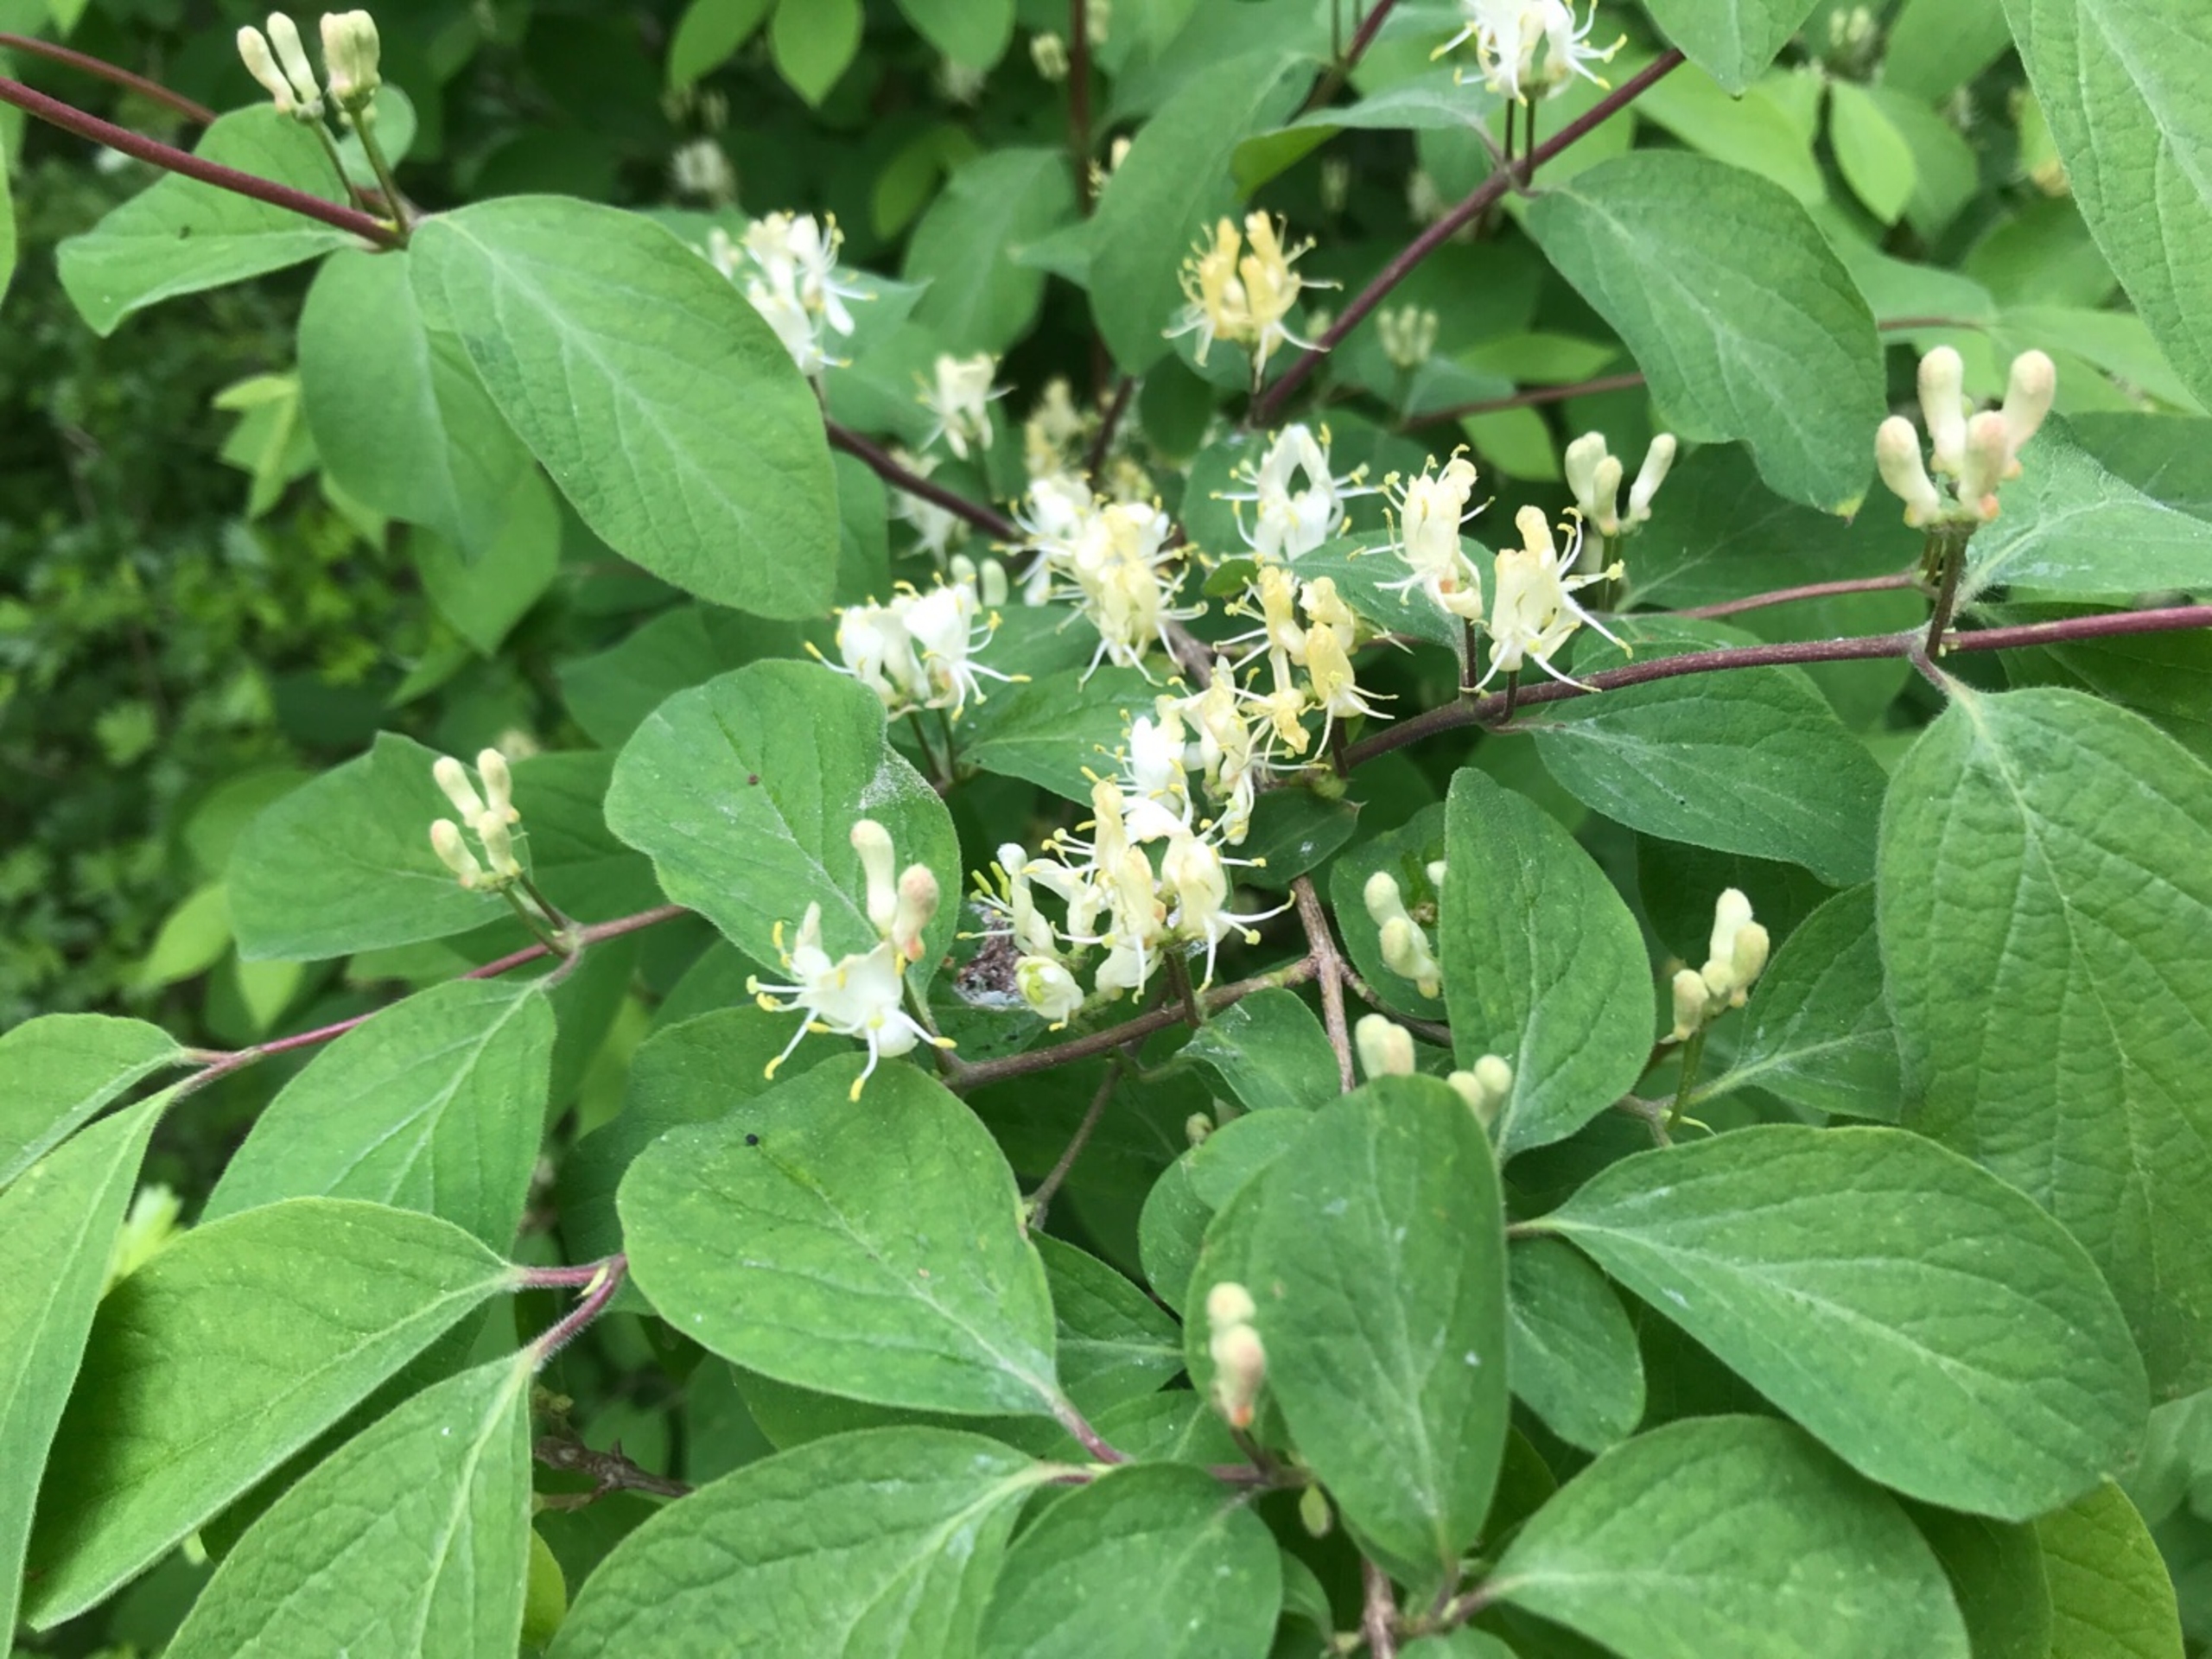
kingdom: Plantae
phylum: Tracheophyta
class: Magnoliopsida
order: Dipsacales
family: Caprifoliaceae
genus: Lonicera
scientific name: Lonicera xylosteum
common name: Dunet gedeblad
